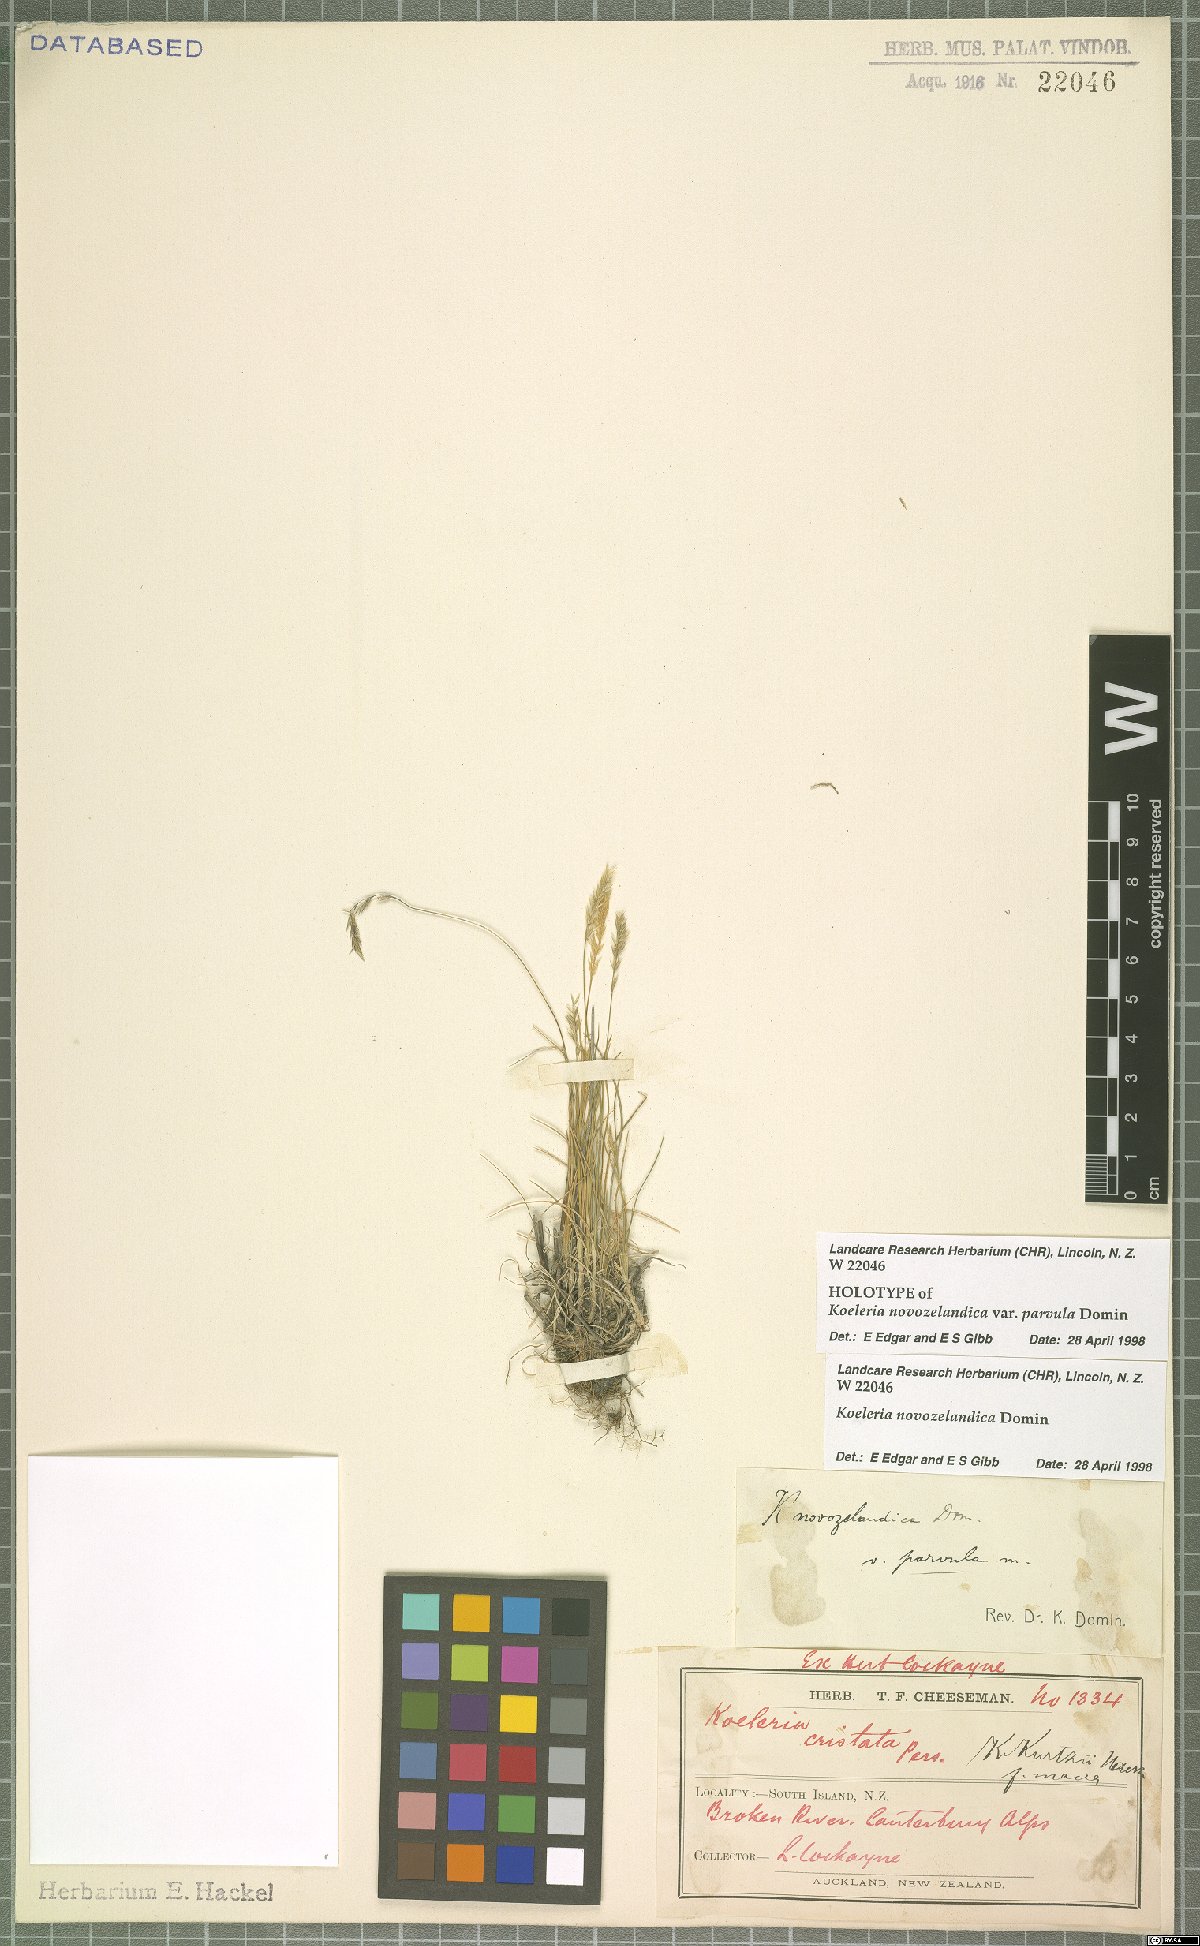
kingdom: Plantae
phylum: Tracheophyta
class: Liliopsida
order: Poales
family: Poaceae
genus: Koeleria
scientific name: Koeleria novozelandica
